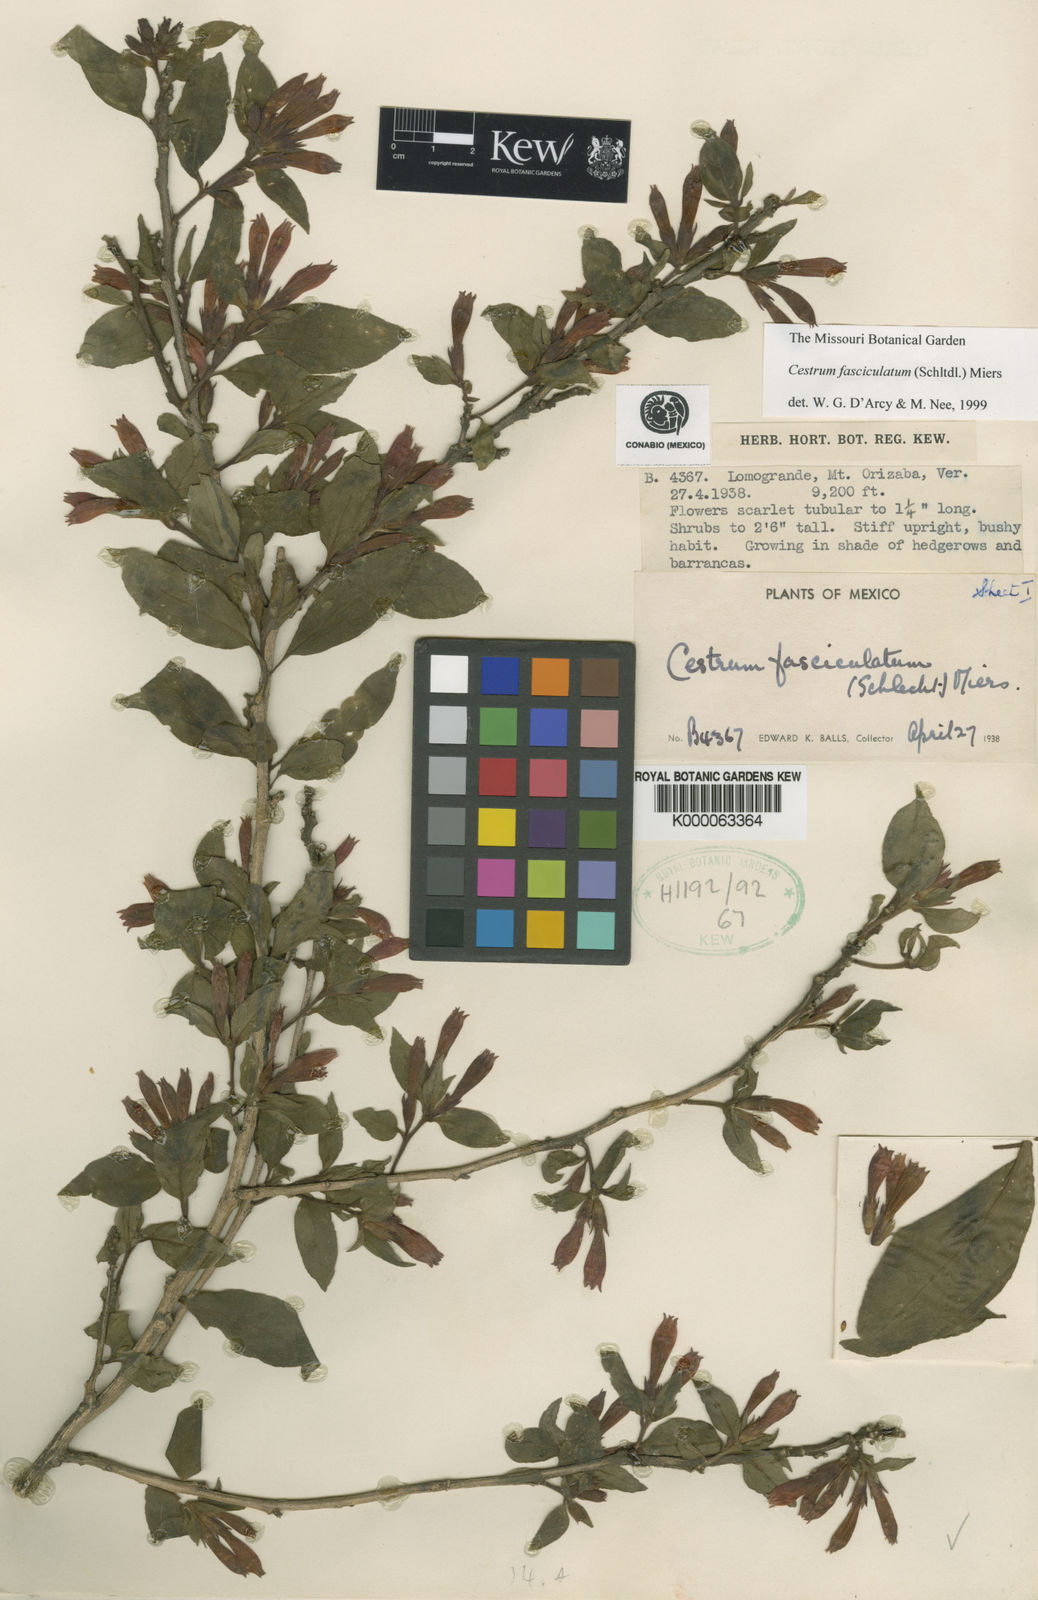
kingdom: Plantae
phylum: Tracheophyta
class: Magnoliopsida
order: Solanales
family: Solanaceae
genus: Cestrum
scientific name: Cestrum fasciculatum
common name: Early jessamine
